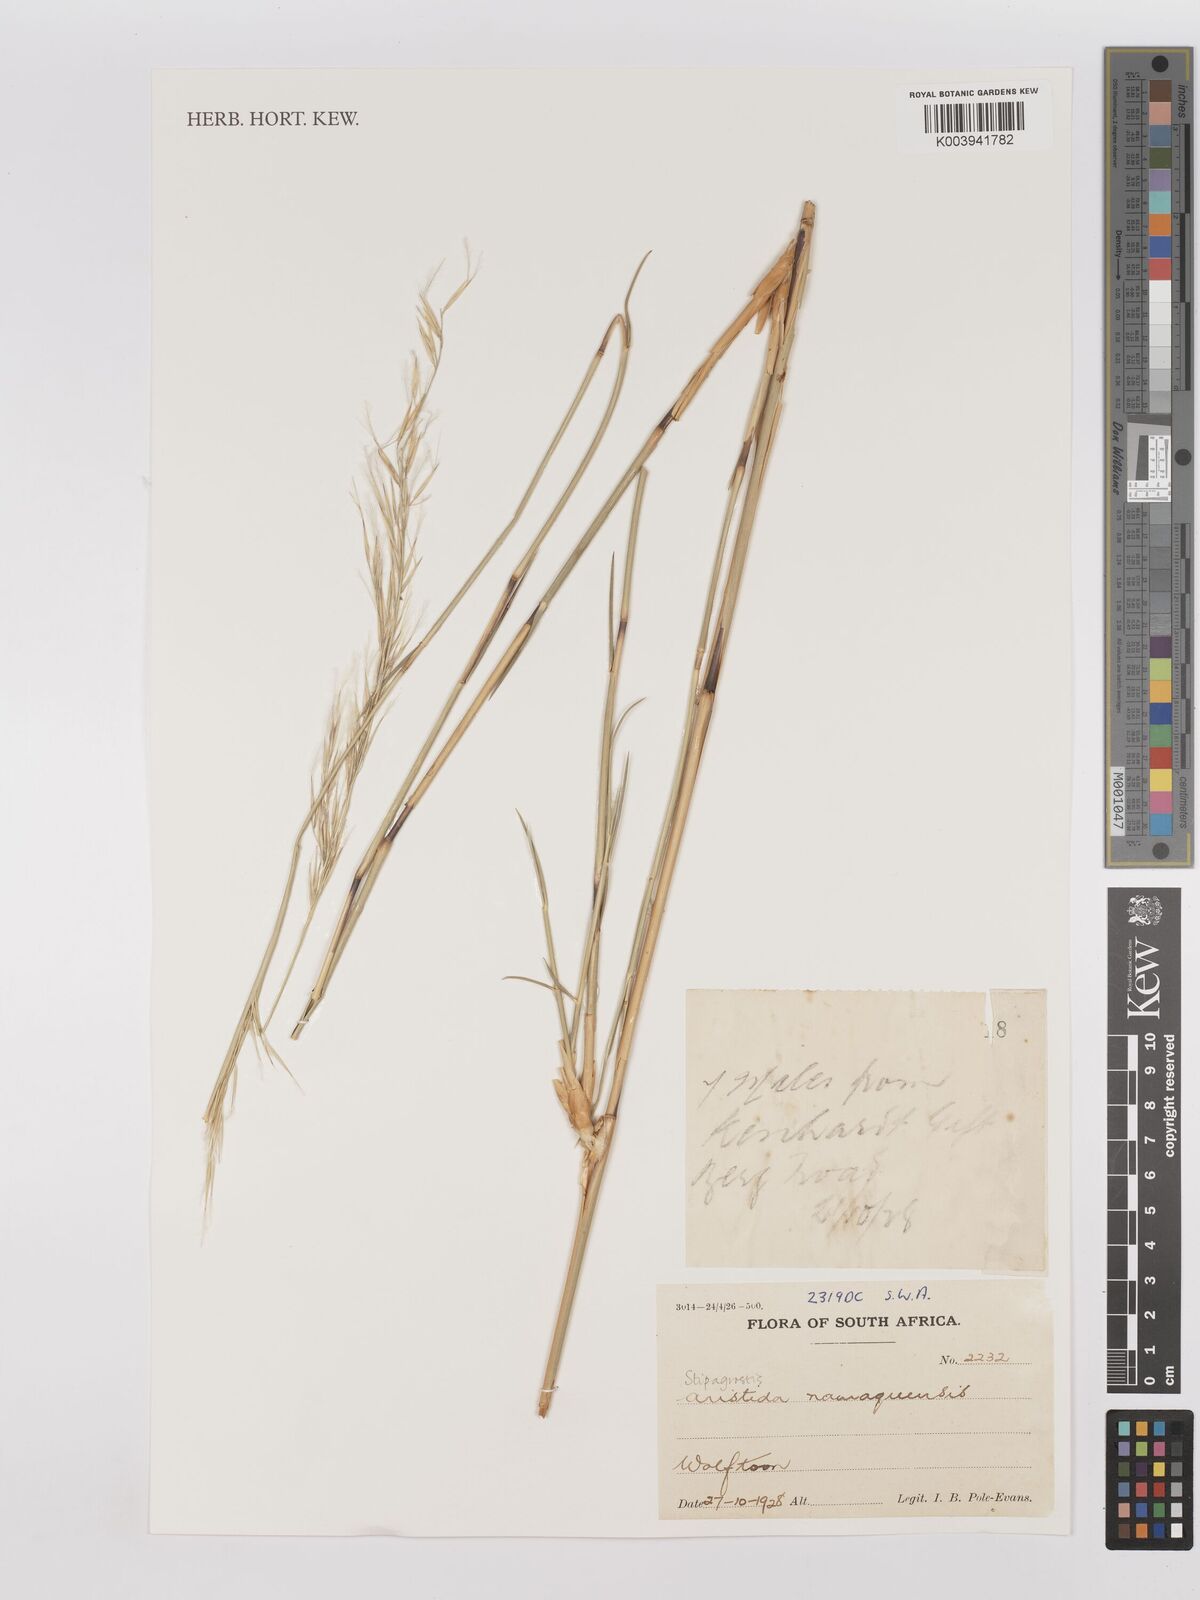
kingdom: Plantae
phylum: Tracheophyta
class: Liliopsida
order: Poales
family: Poaceae
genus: Stipagrostis
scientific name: Stipagrostis namaquensis
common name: River bushman grass
